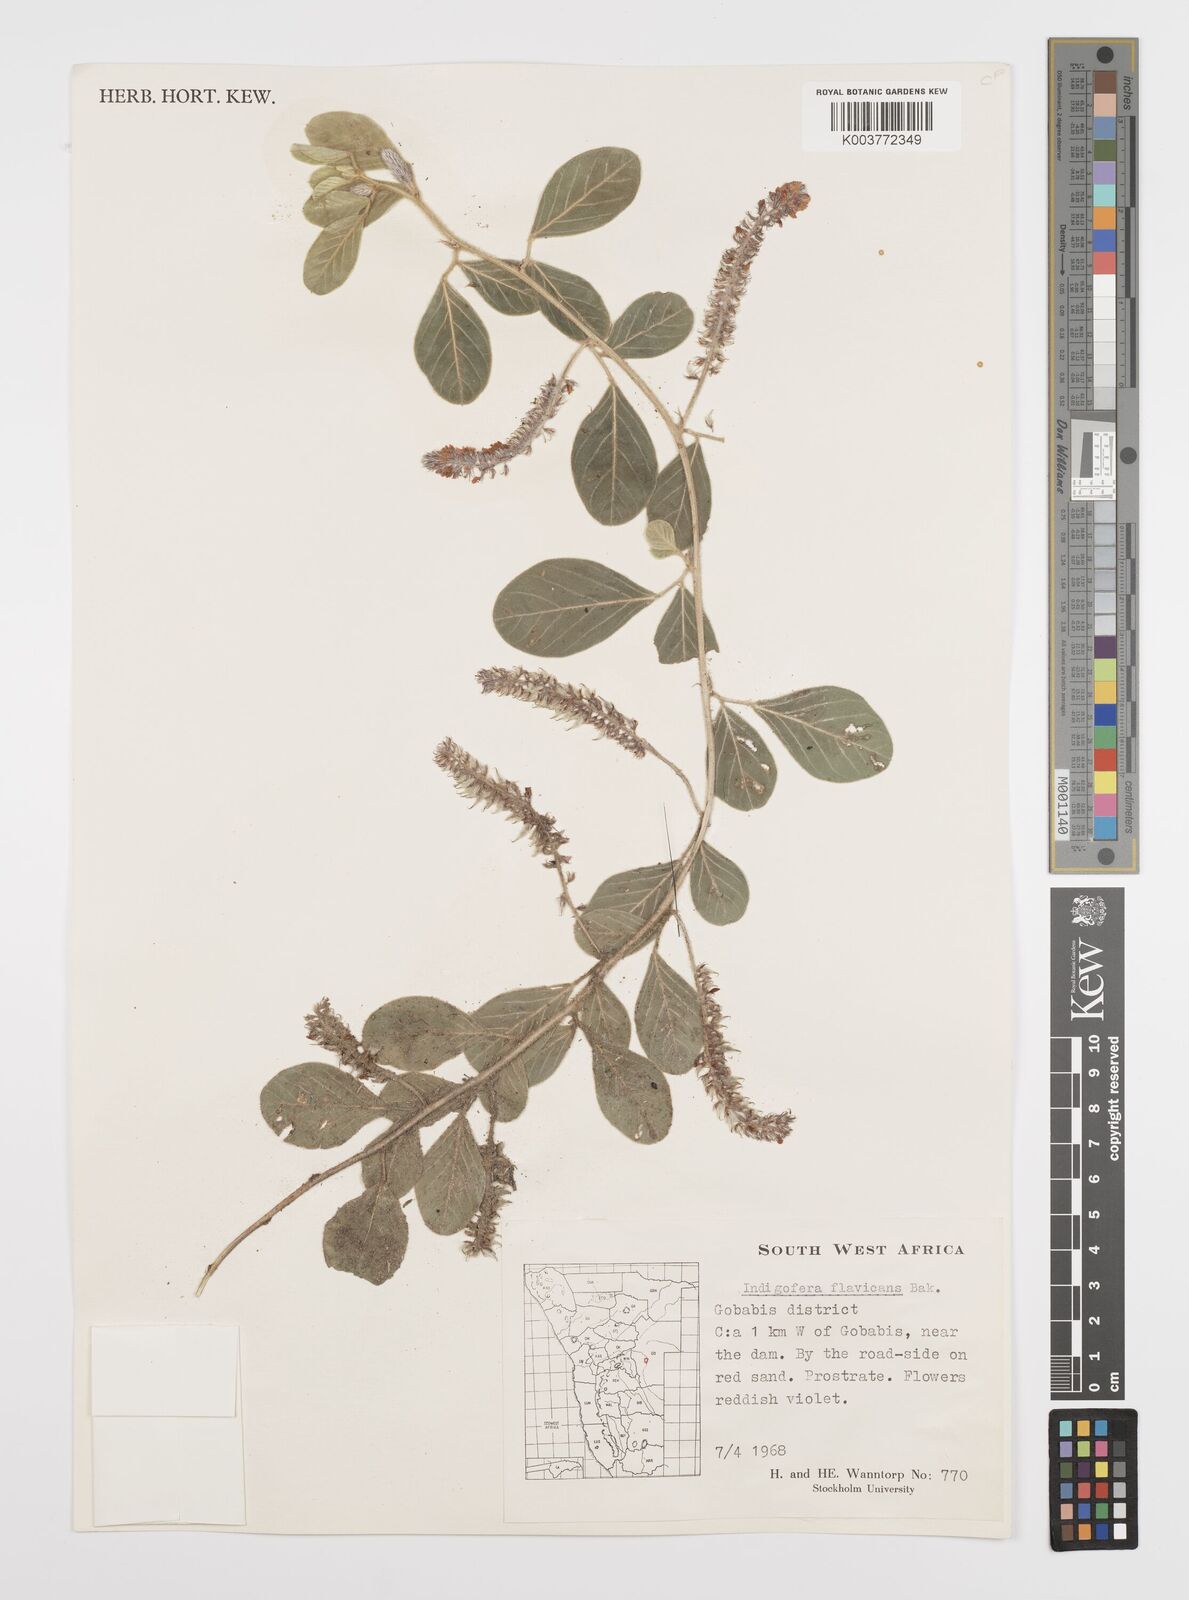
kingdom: Plantae
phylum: Tracheophyta
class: Magnoliopsida
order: Fabales
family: Fabaceae
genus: Indigofera
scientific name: Indigofera flavicans
